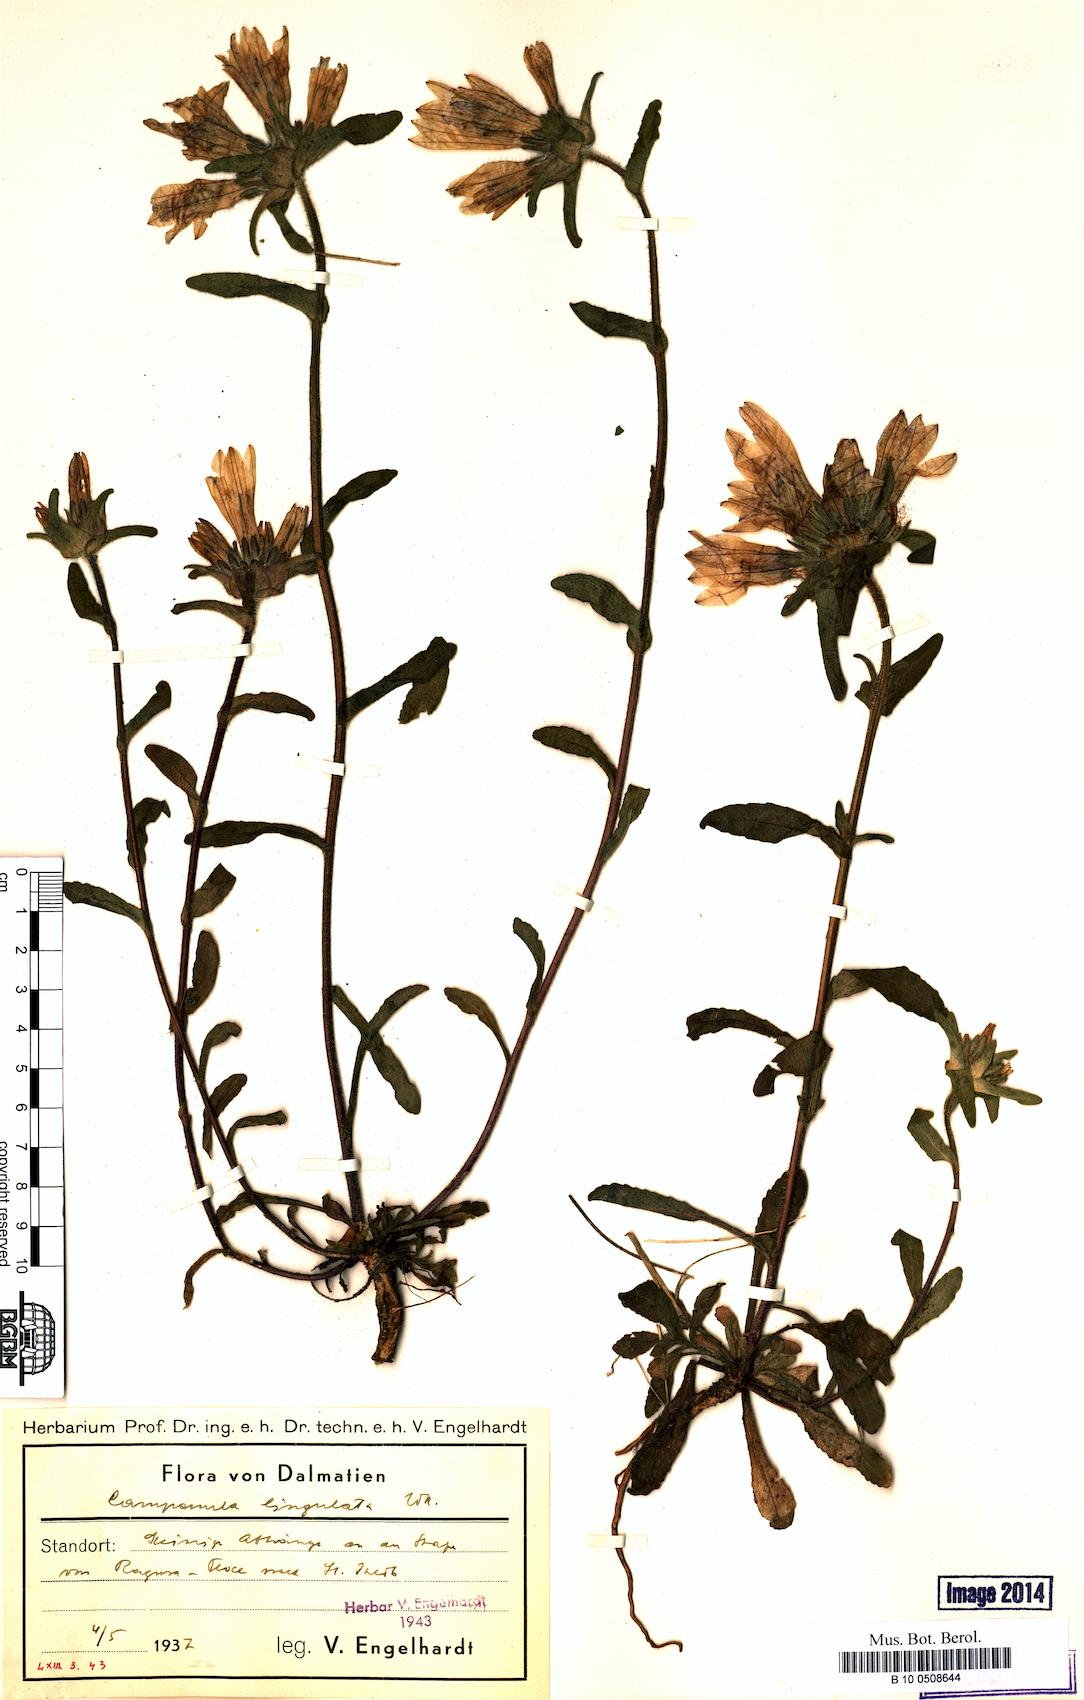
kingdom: Plantae
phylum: Tracheophyta
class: Magnoliopsida
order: Asterales
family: Campanulaceae
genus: Campanula
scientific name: Campanula lingulata
